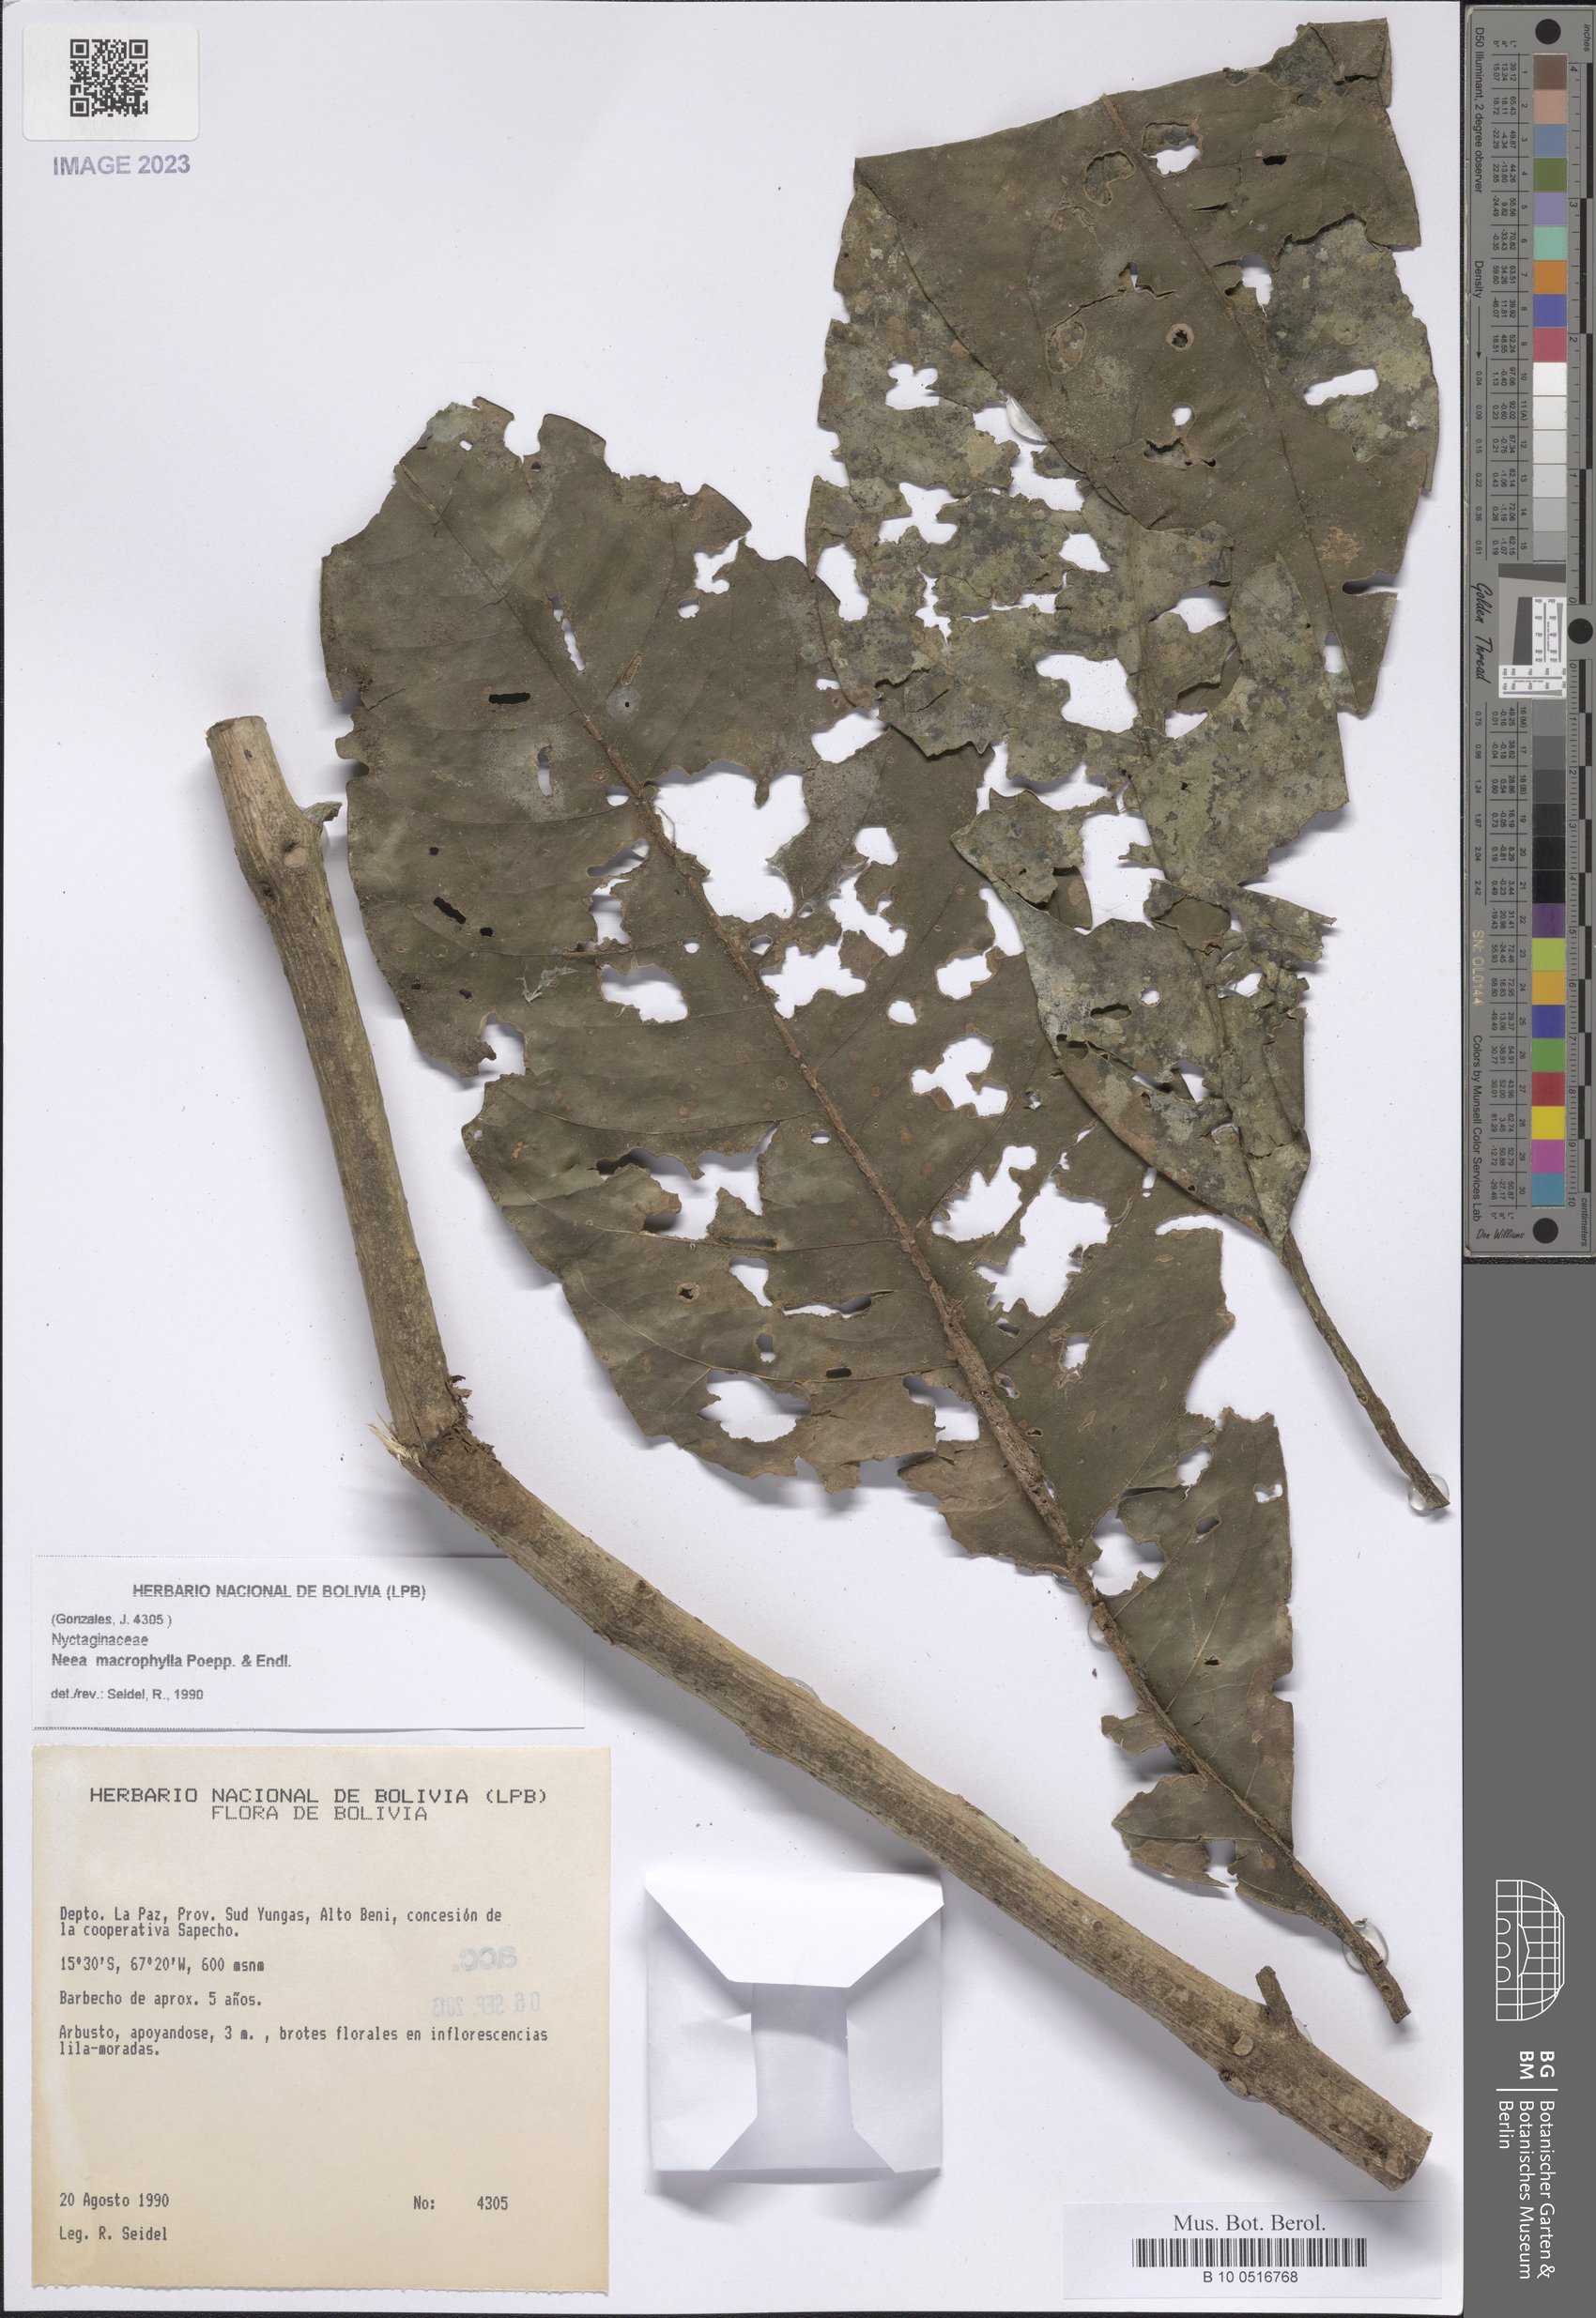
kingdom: Plantae
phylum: Tracheophyta
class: Magnoliopsida
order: Caryophyllales
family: Nyctaginaceae
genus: Neea
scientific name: Neea macrophylla
